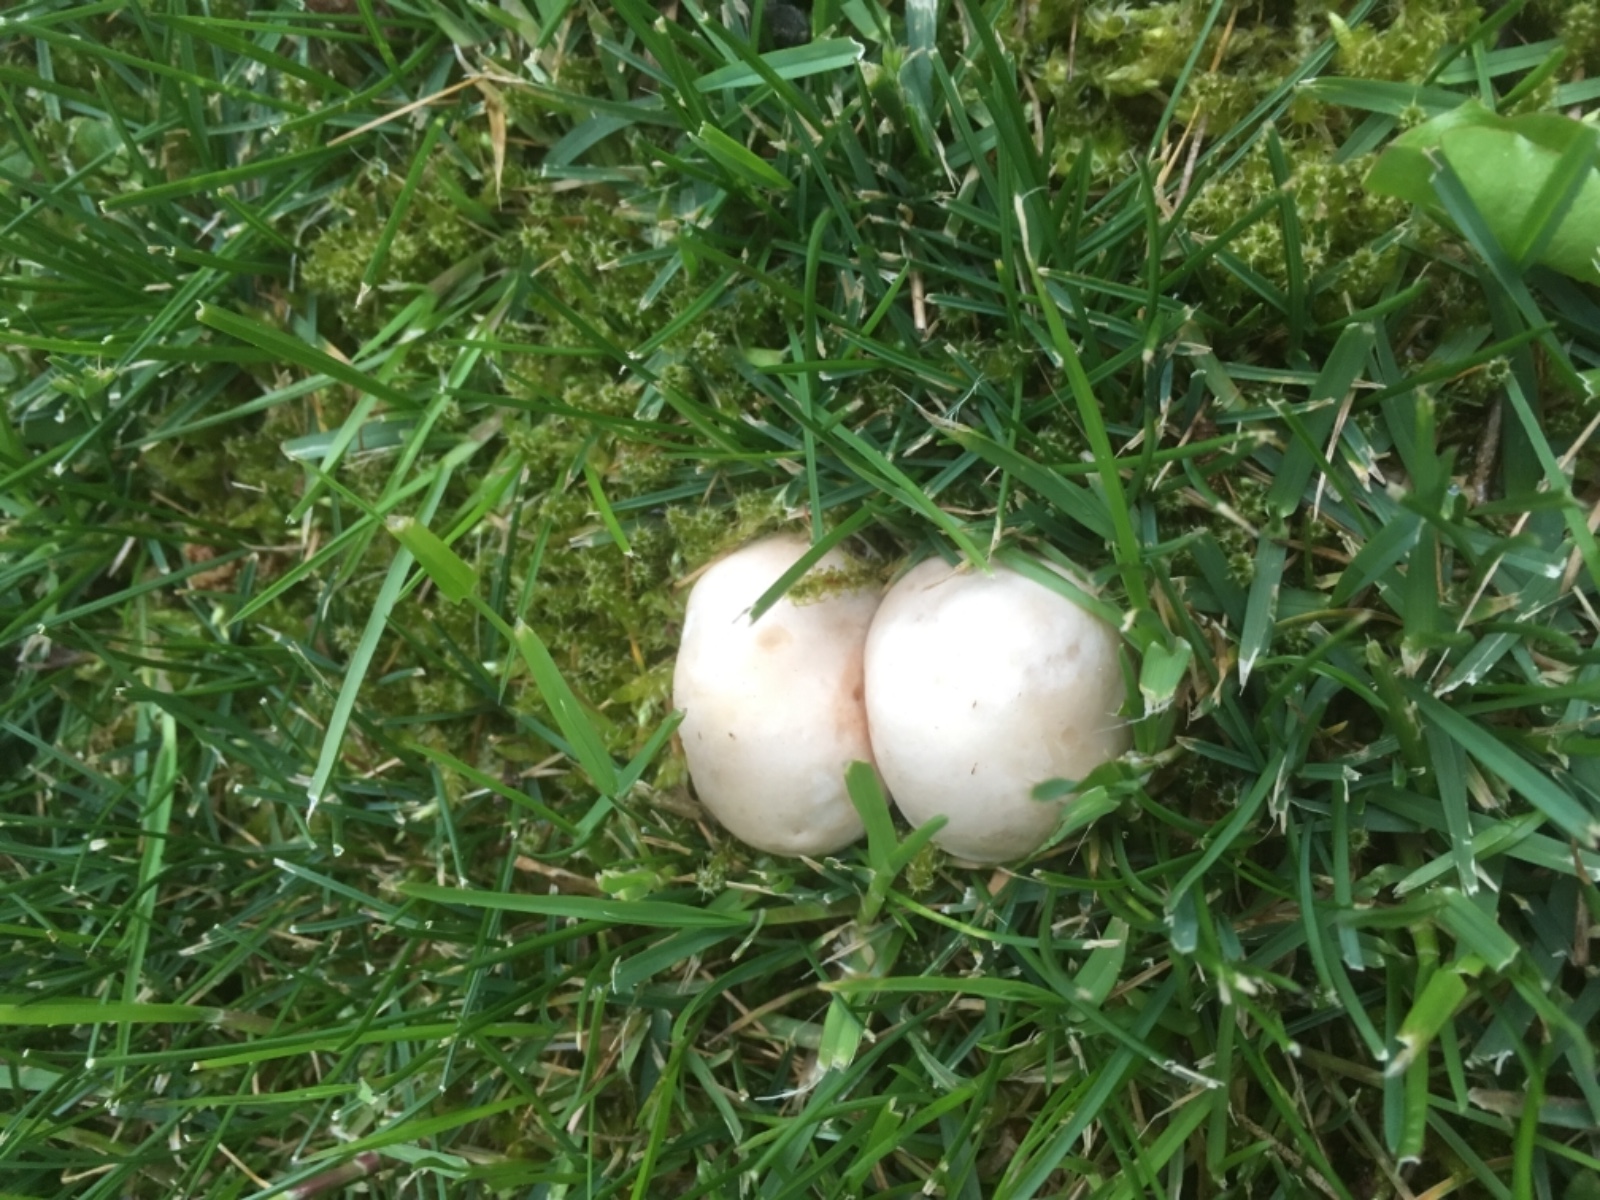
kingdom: Fungi
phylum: Basidiomycota
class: Agaricomycetes
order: Agaricales
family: Lyophyllaceae
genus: Calocybe
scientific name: Calocybe gambosa
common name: vårmusseron
